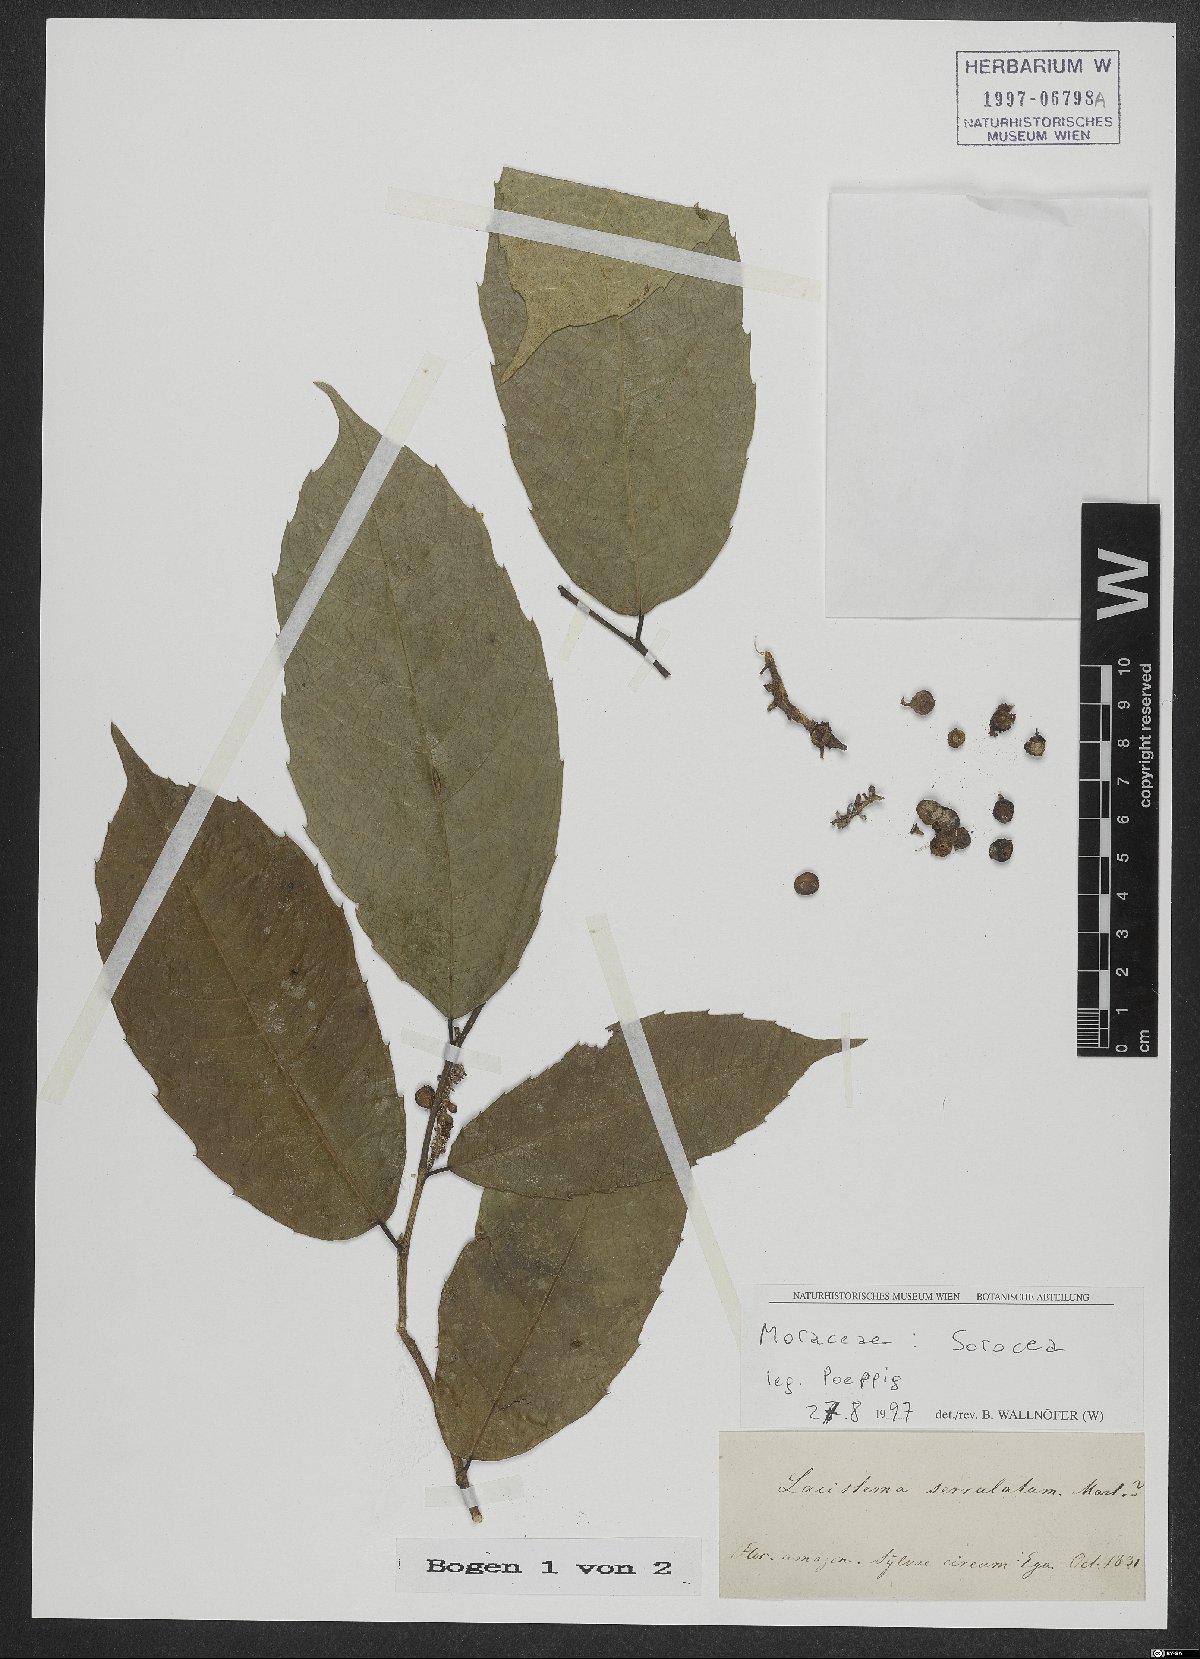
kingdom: Plantae
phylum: Tracheophyta
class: Magnoliopsida
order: Rosales
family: Moraceae
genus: Sorocea
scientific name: Sorocea
